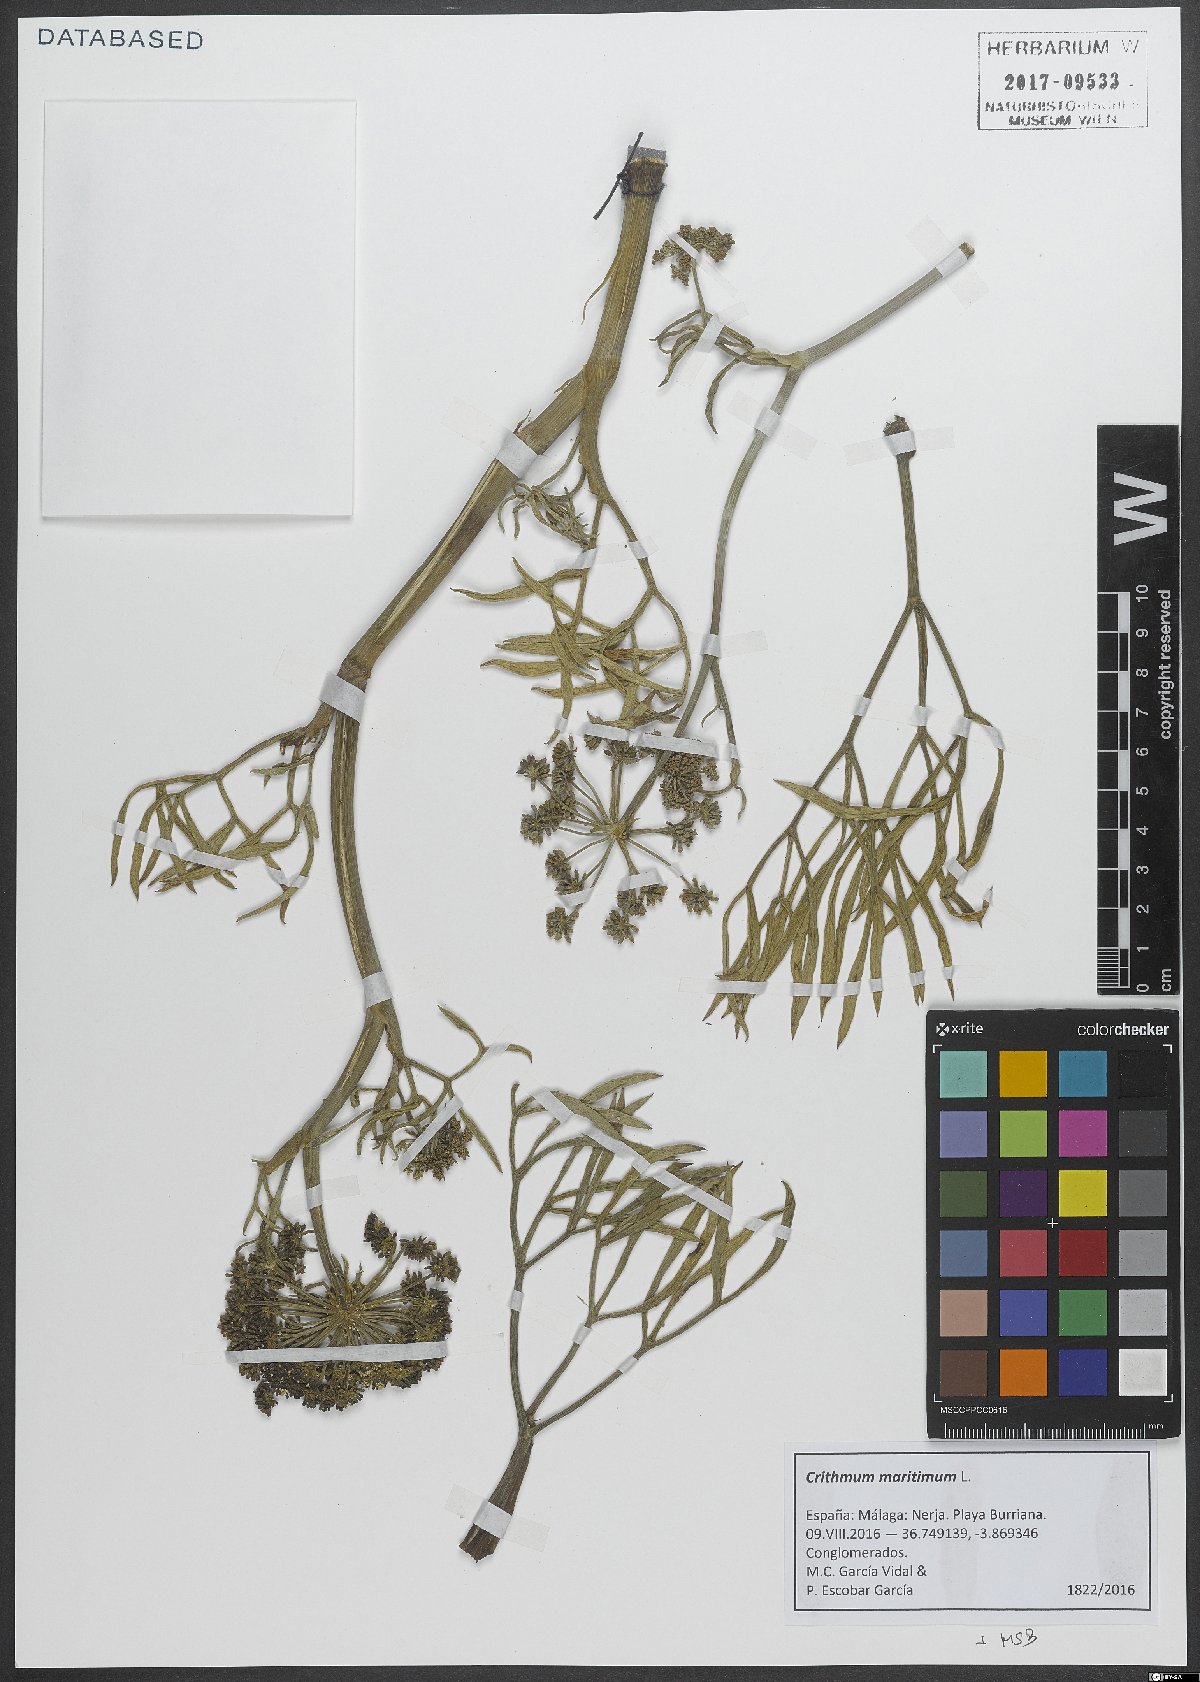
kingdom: Plantae
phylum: Tracheophyta
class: Magnoliopsida
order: Apiales
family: Apiaceae
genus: Crithmum
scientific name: Crithmum maritimum
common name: Rock samphire
